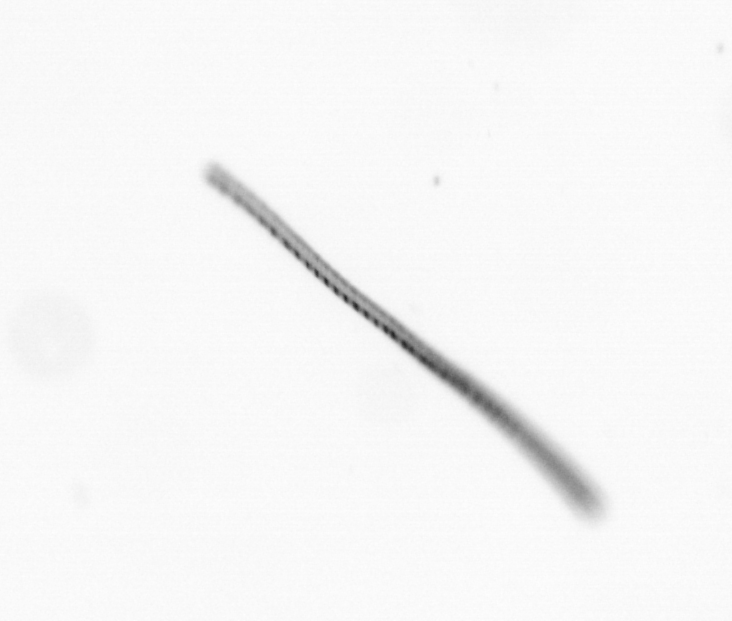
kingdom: Chromista
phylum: Ochrophyta
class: Bacillariophyceae
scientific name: Bacillariophyceae
